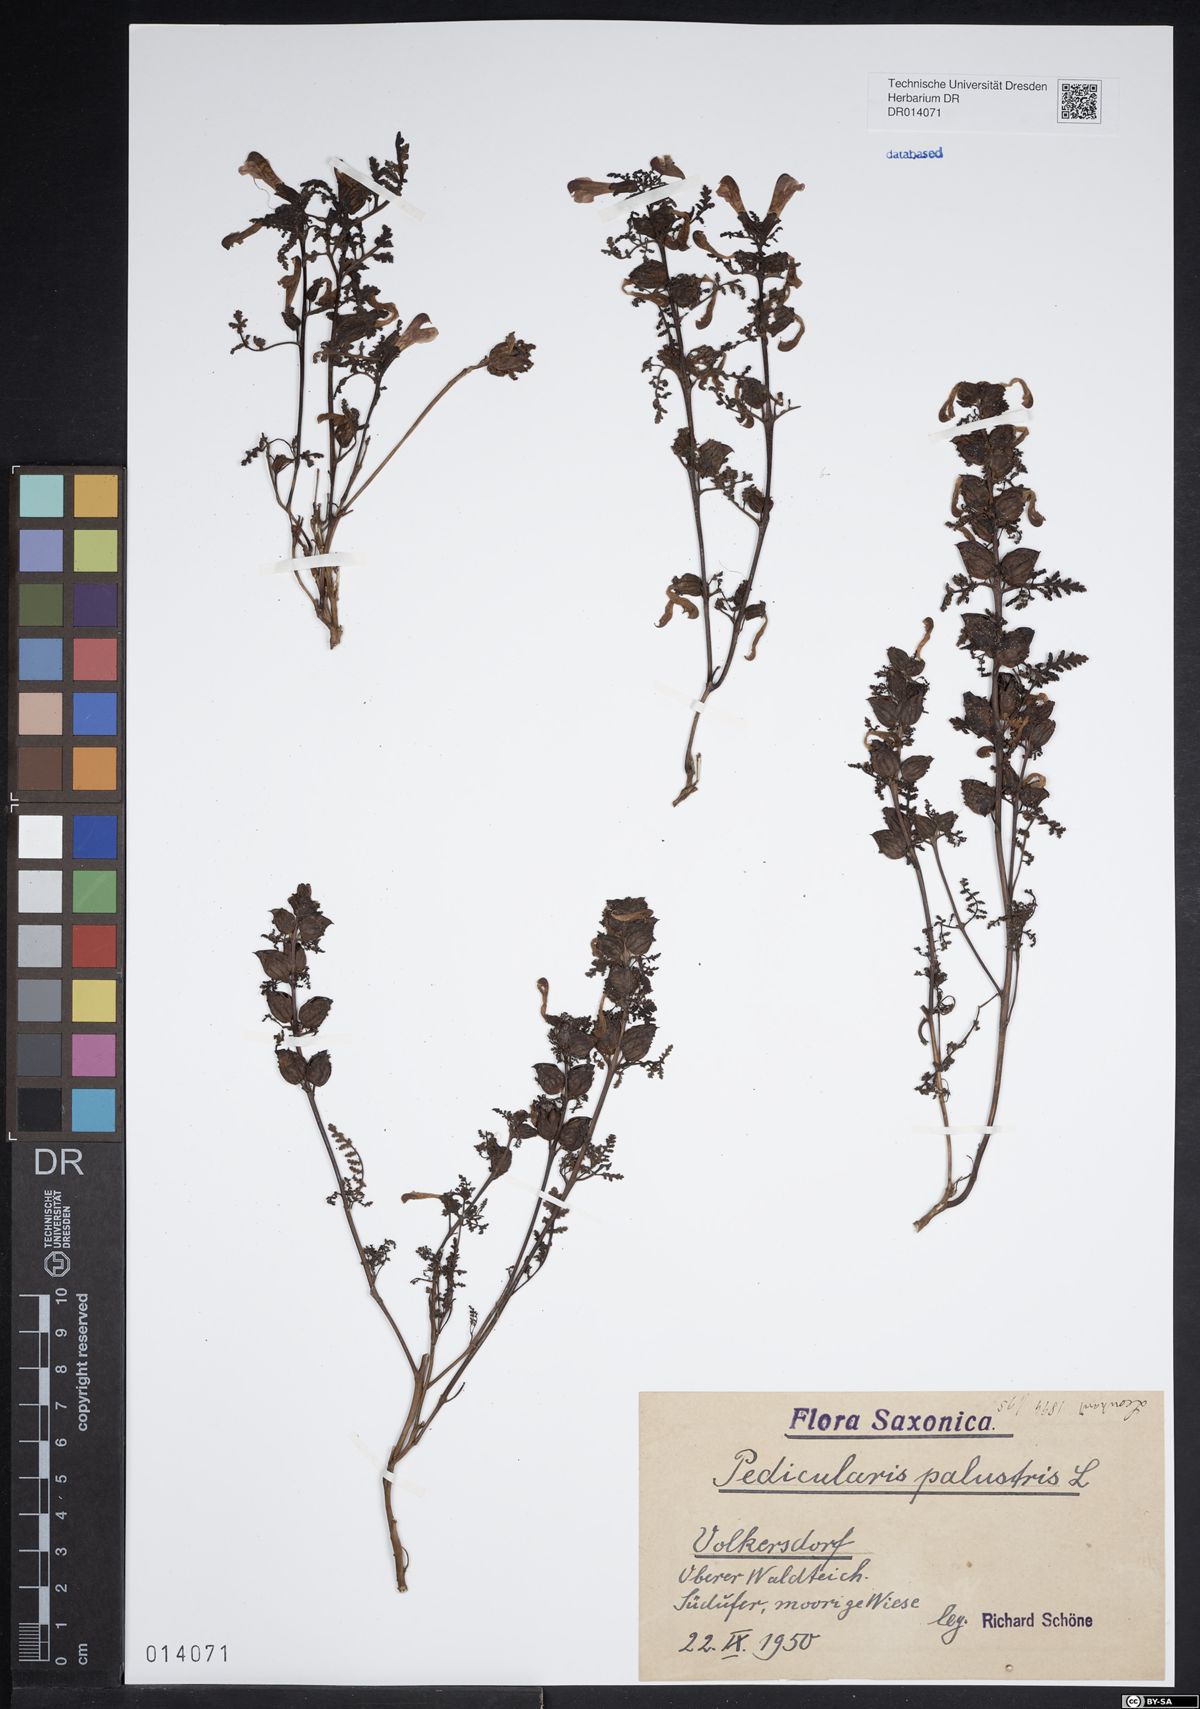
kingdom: Plantae
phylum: Tracheophyta
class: Magnoliopsida
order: Lamiales
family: Orobanchaceae
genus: Pedicularis
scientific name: Pedicularis palustris
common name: Marsh lousewort
